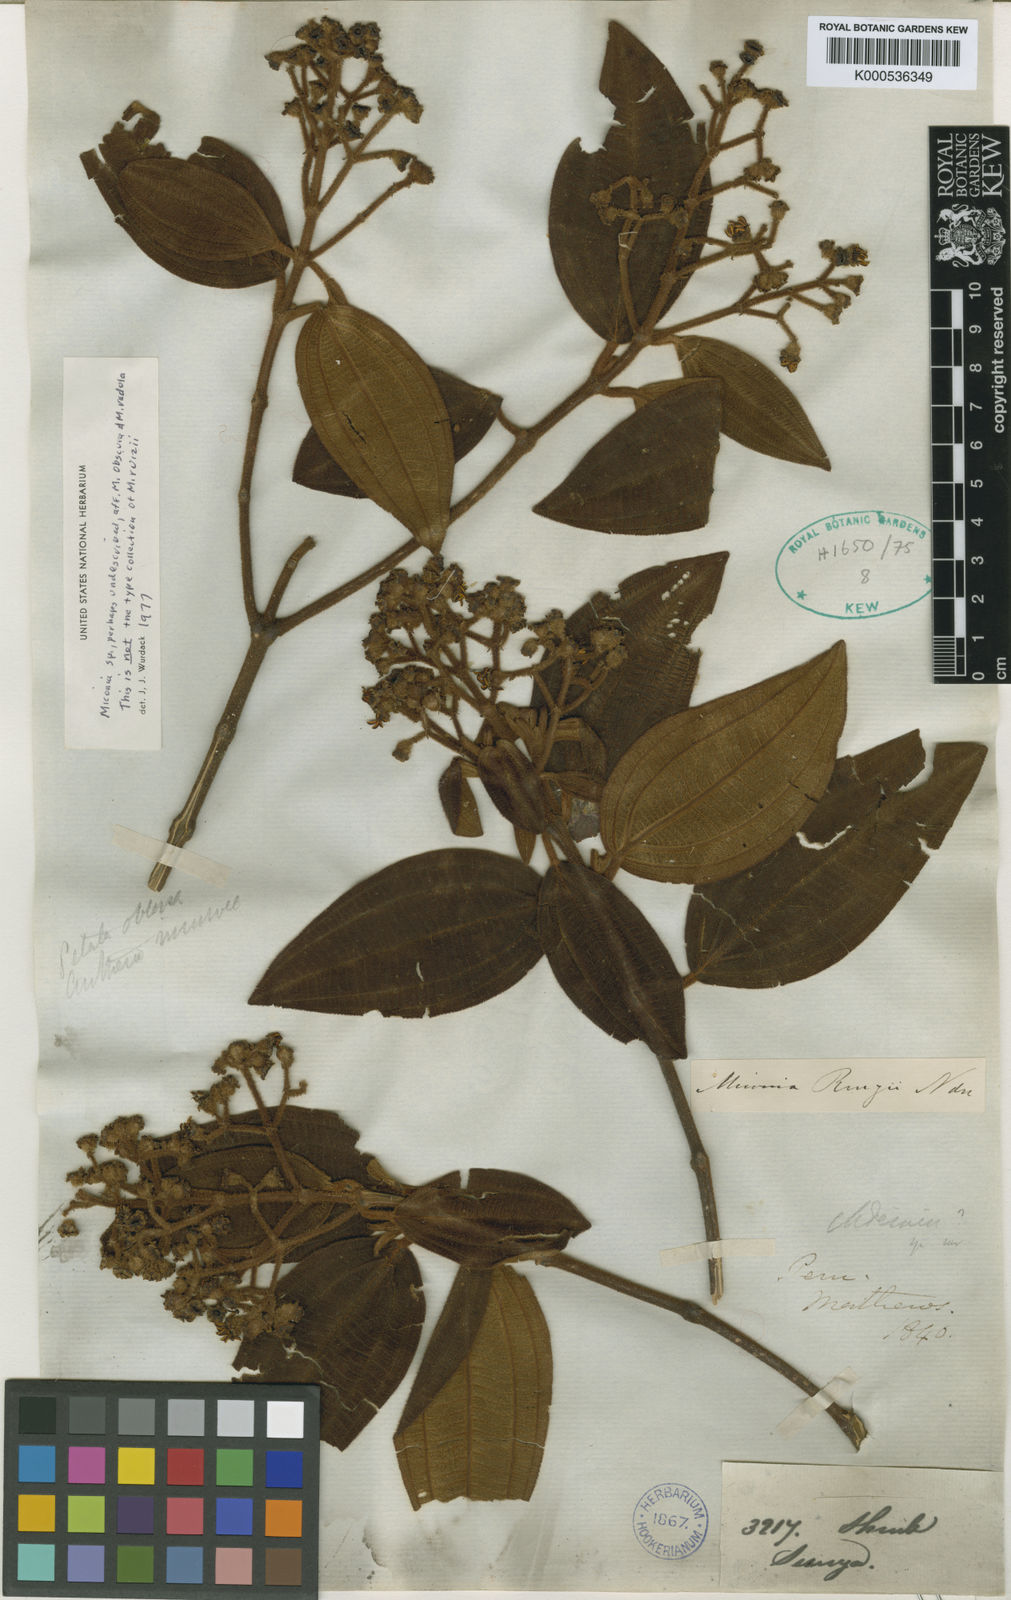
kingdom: Plantae
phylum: Tracheophyta
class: Magnoliopsida
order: Myrtales
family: Melastomataceae
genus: Miconia
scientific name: Miconia ruizii
